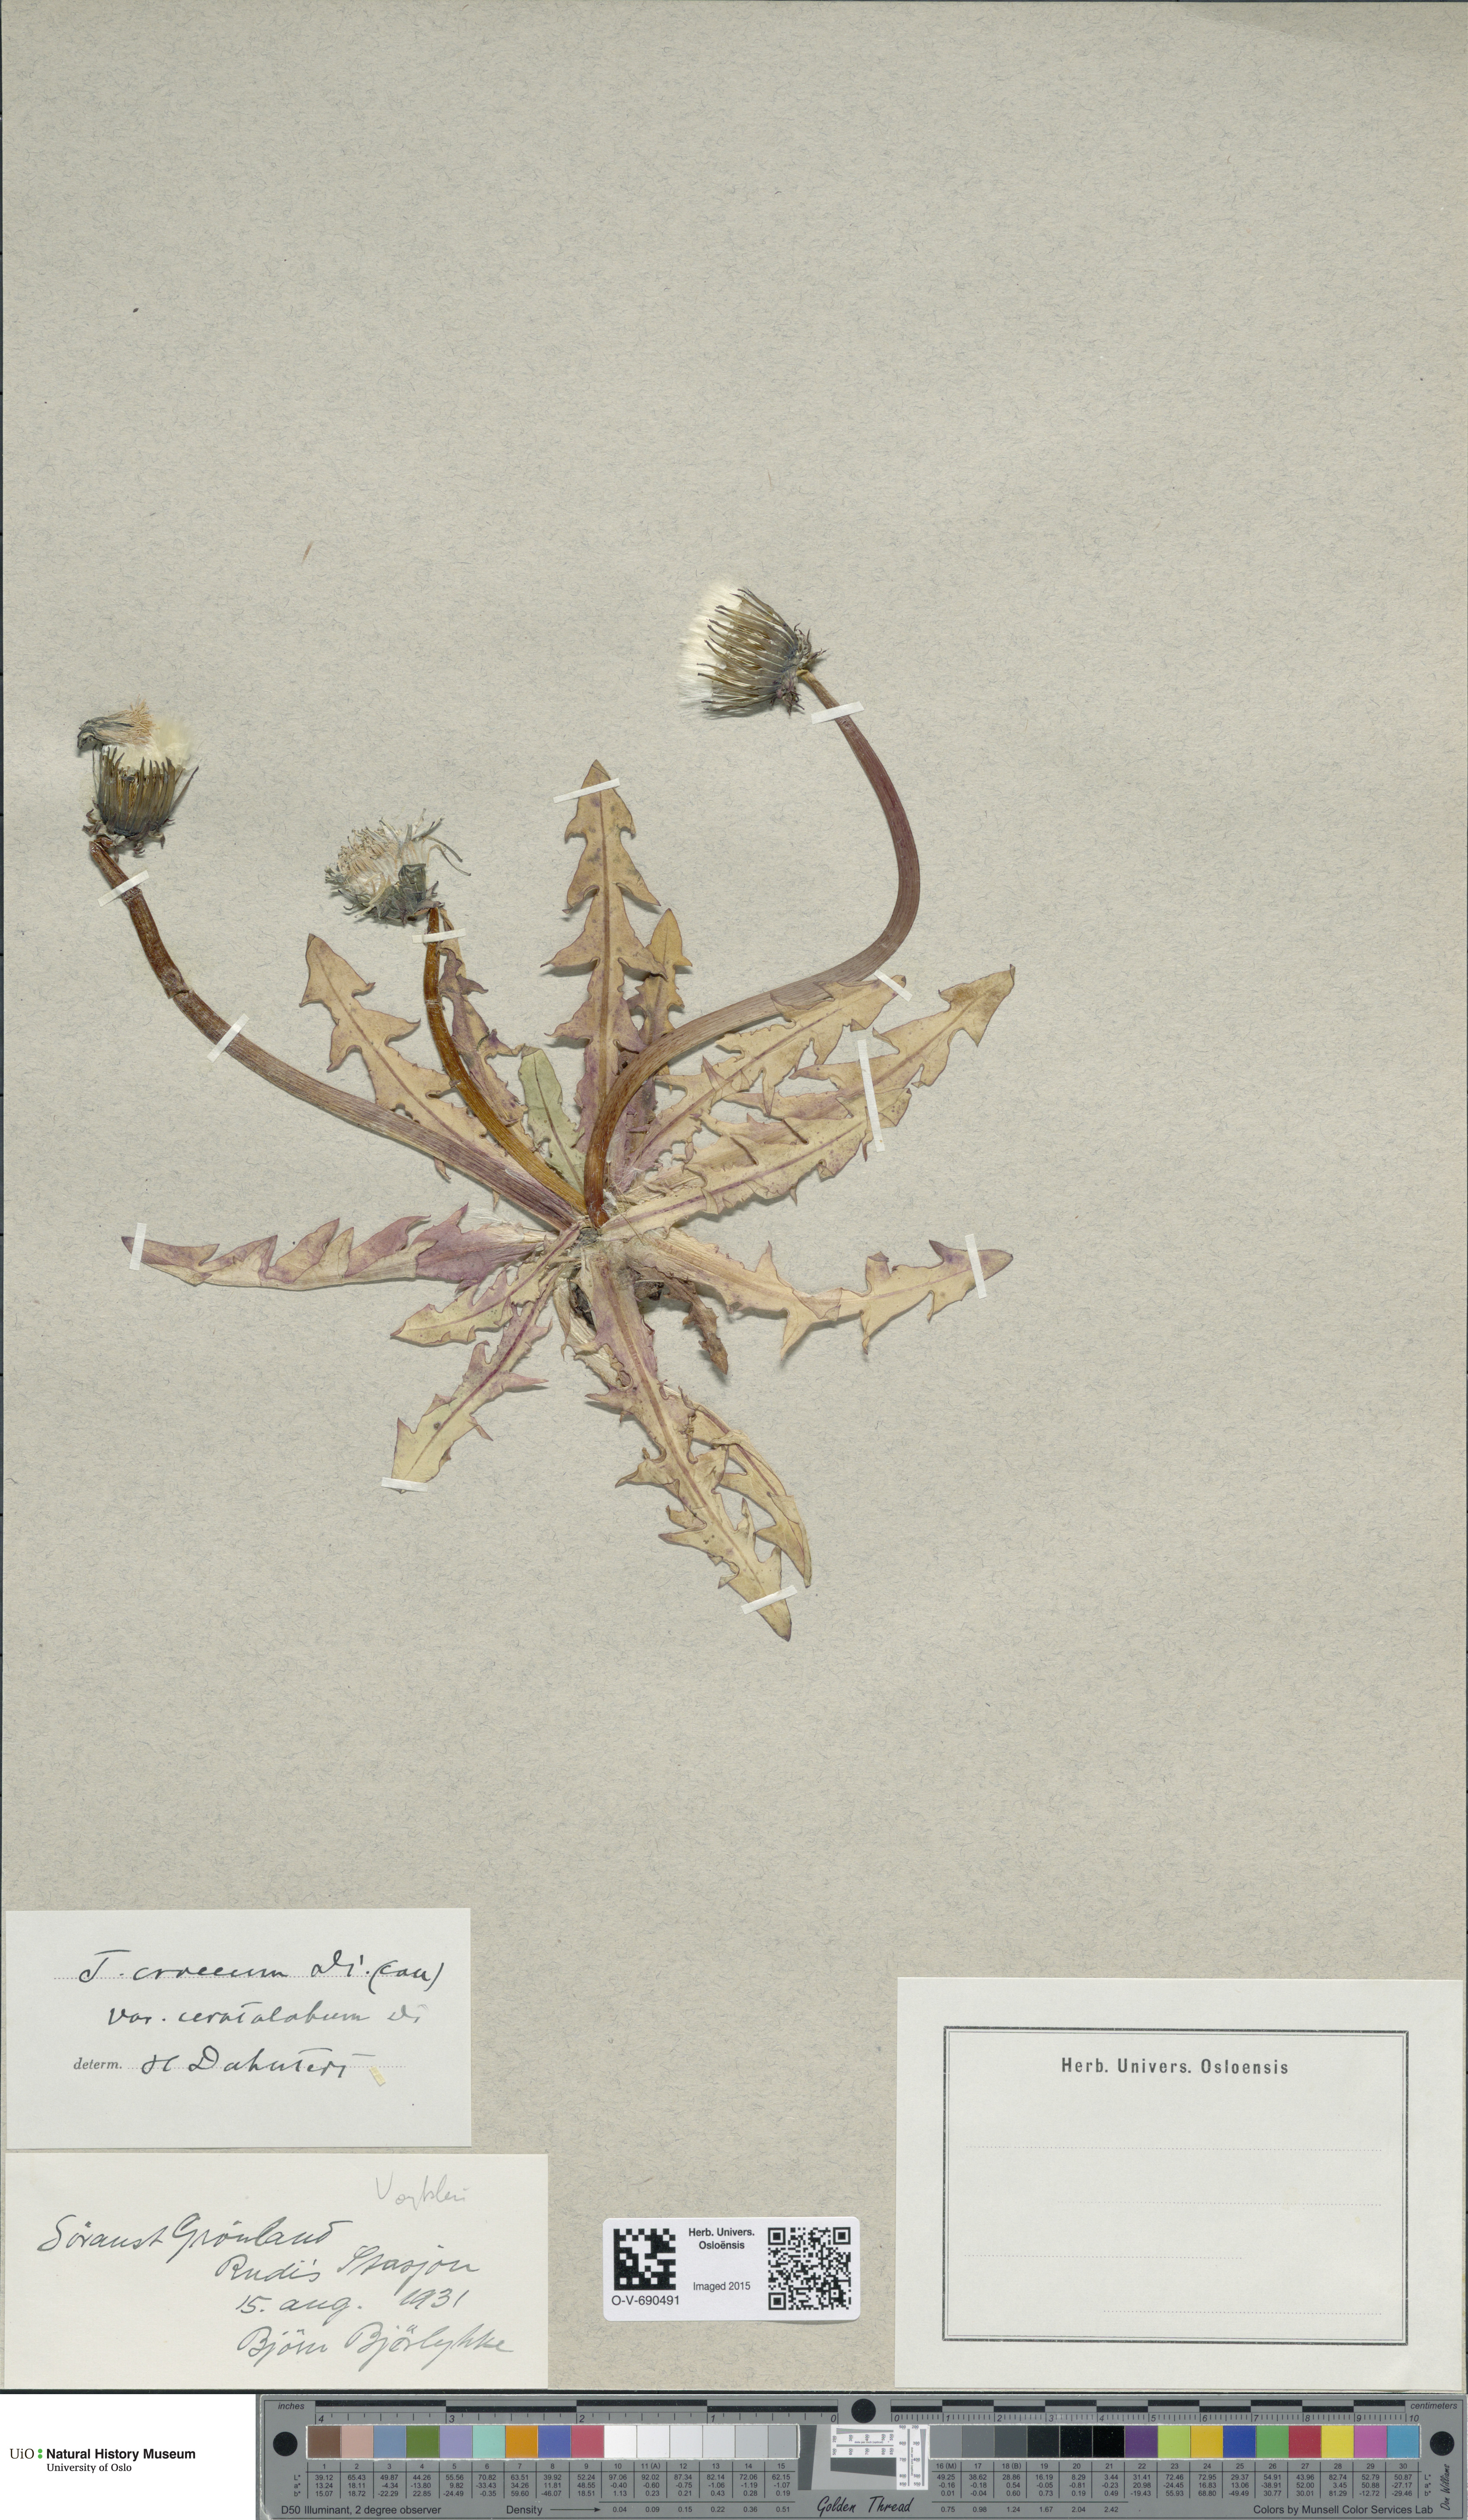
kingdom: Plantae
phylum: Tracheophyta
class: Magnoliopsida
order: Asterales
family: Asteraceae
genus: Taraxacum
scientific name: Taraxacum croceum
